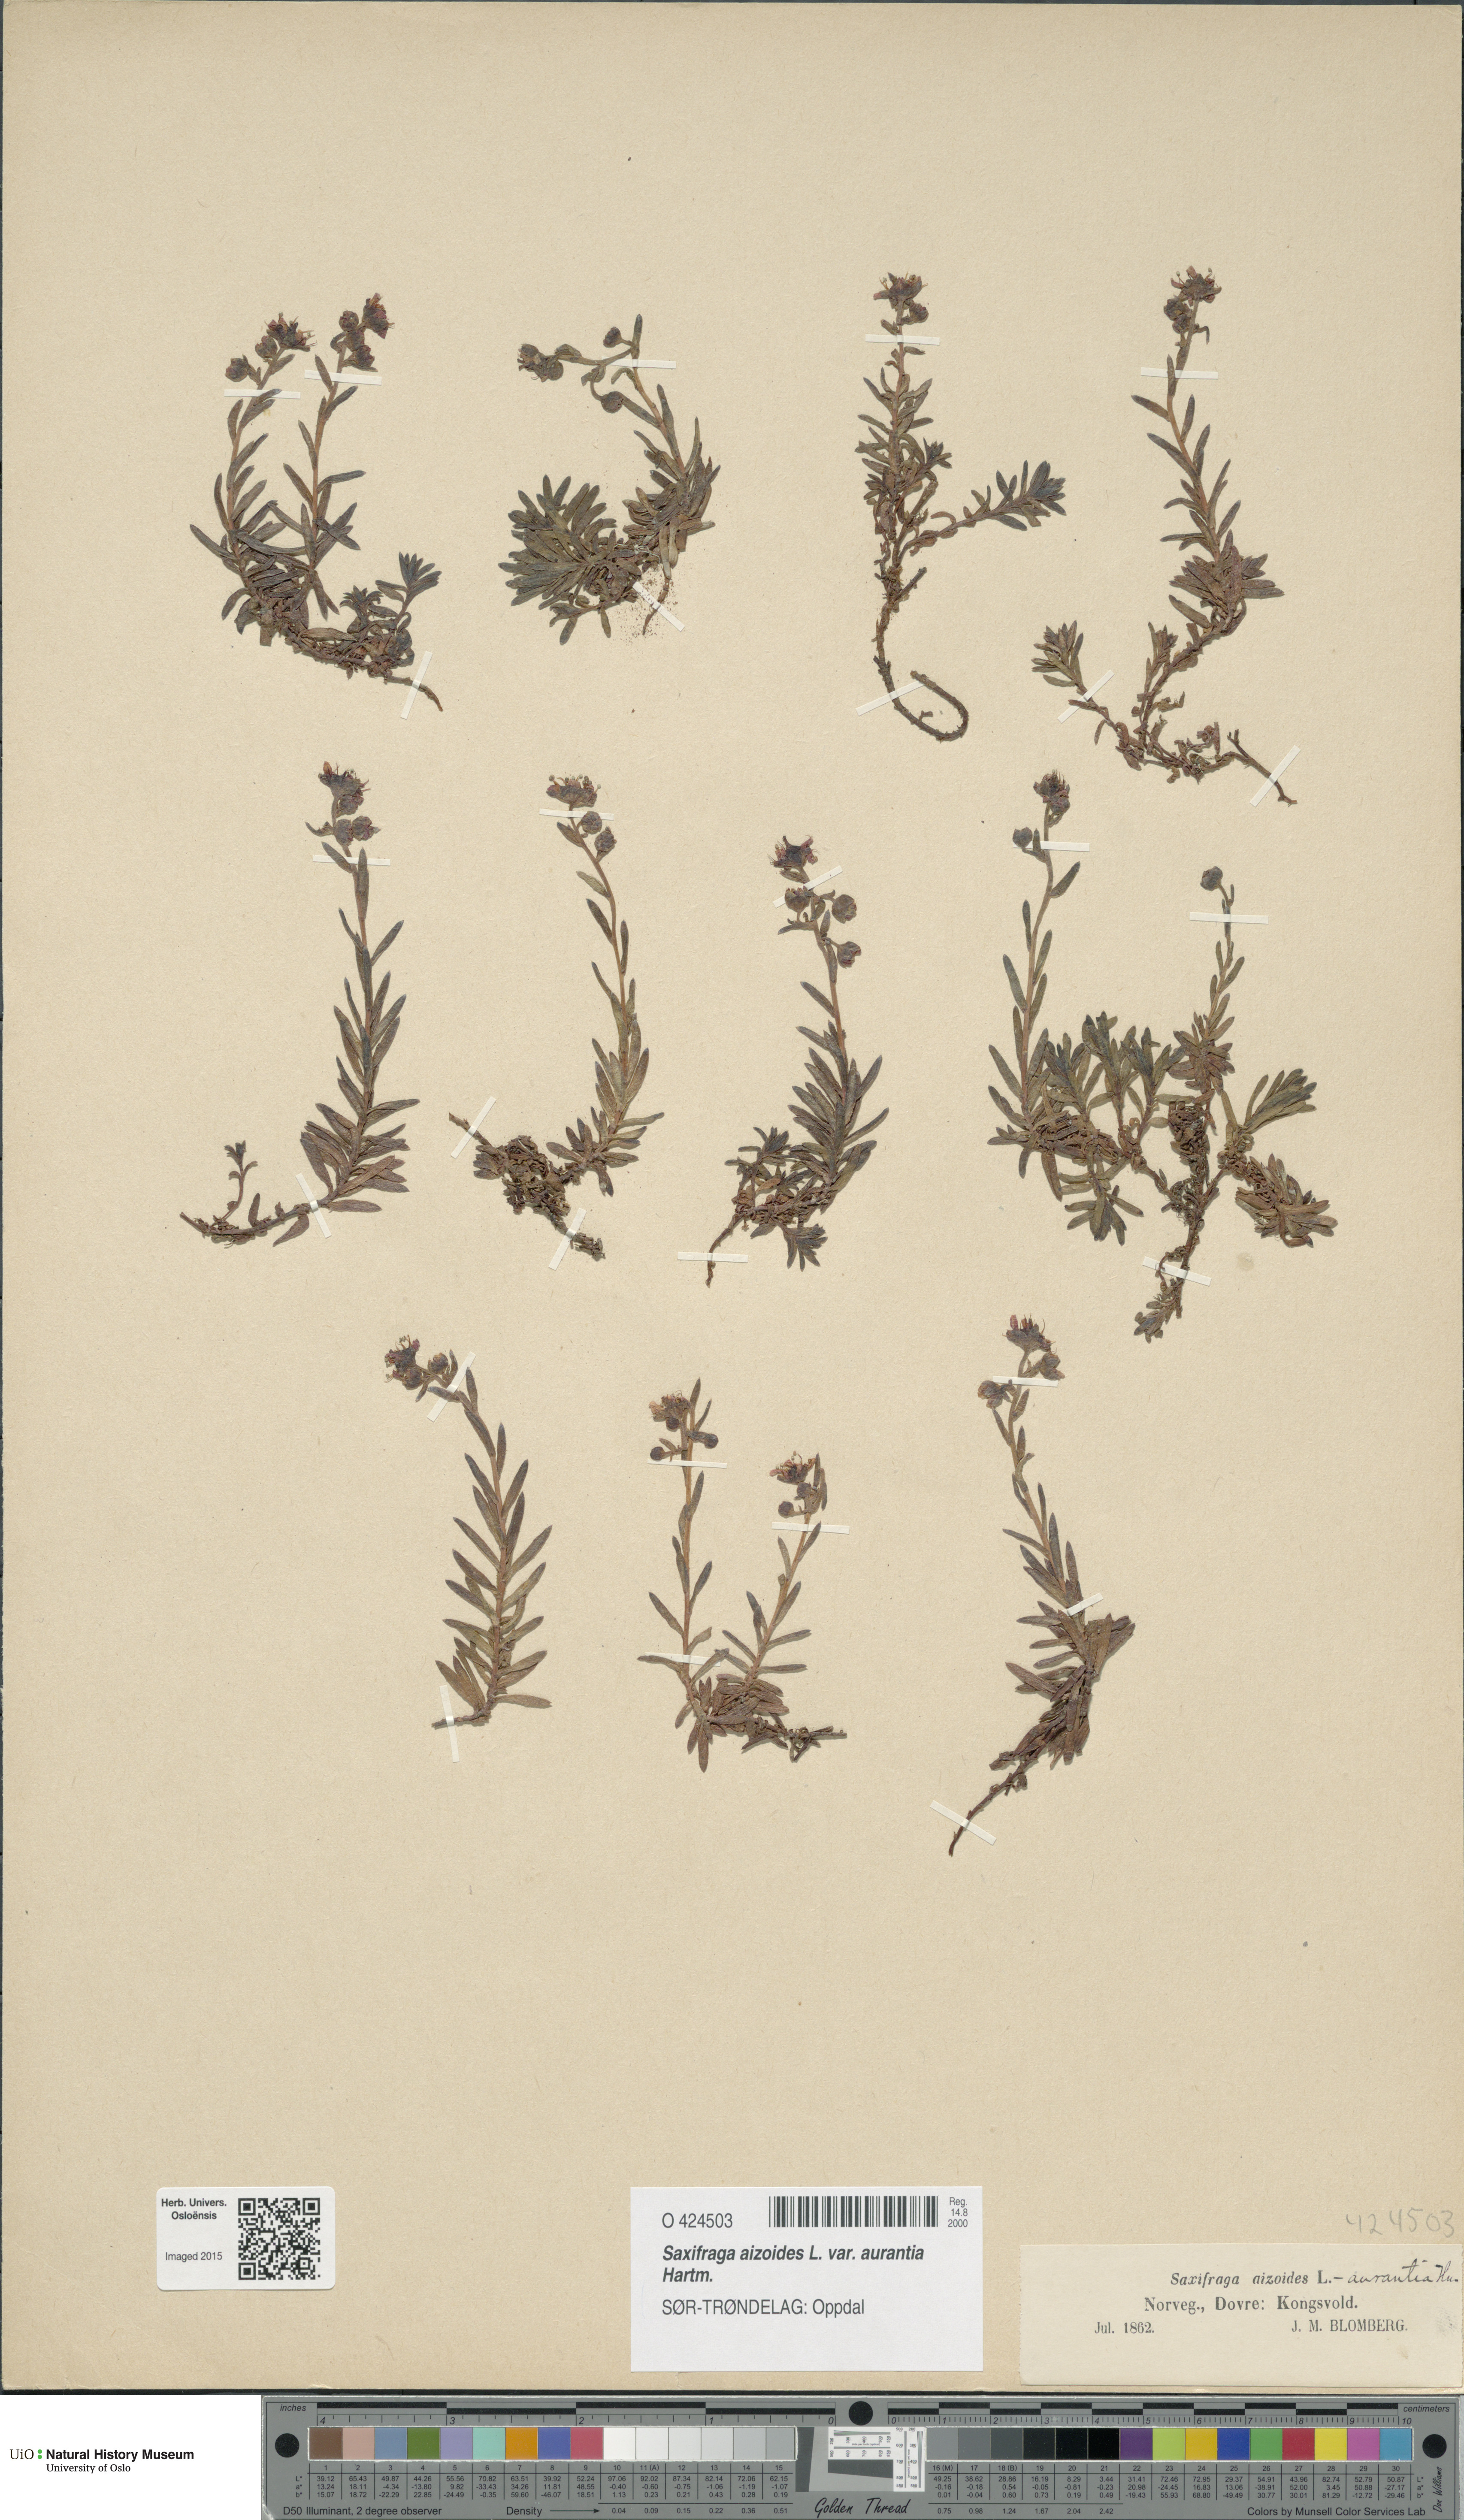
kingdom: Plantae
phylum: Tracheophyta
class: Magnoliopsida
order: Saxifragales
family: Saxifragaceae
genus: Saxifraga
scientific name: Saxifraga aizoides
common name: Yellow mountain saxifrage
